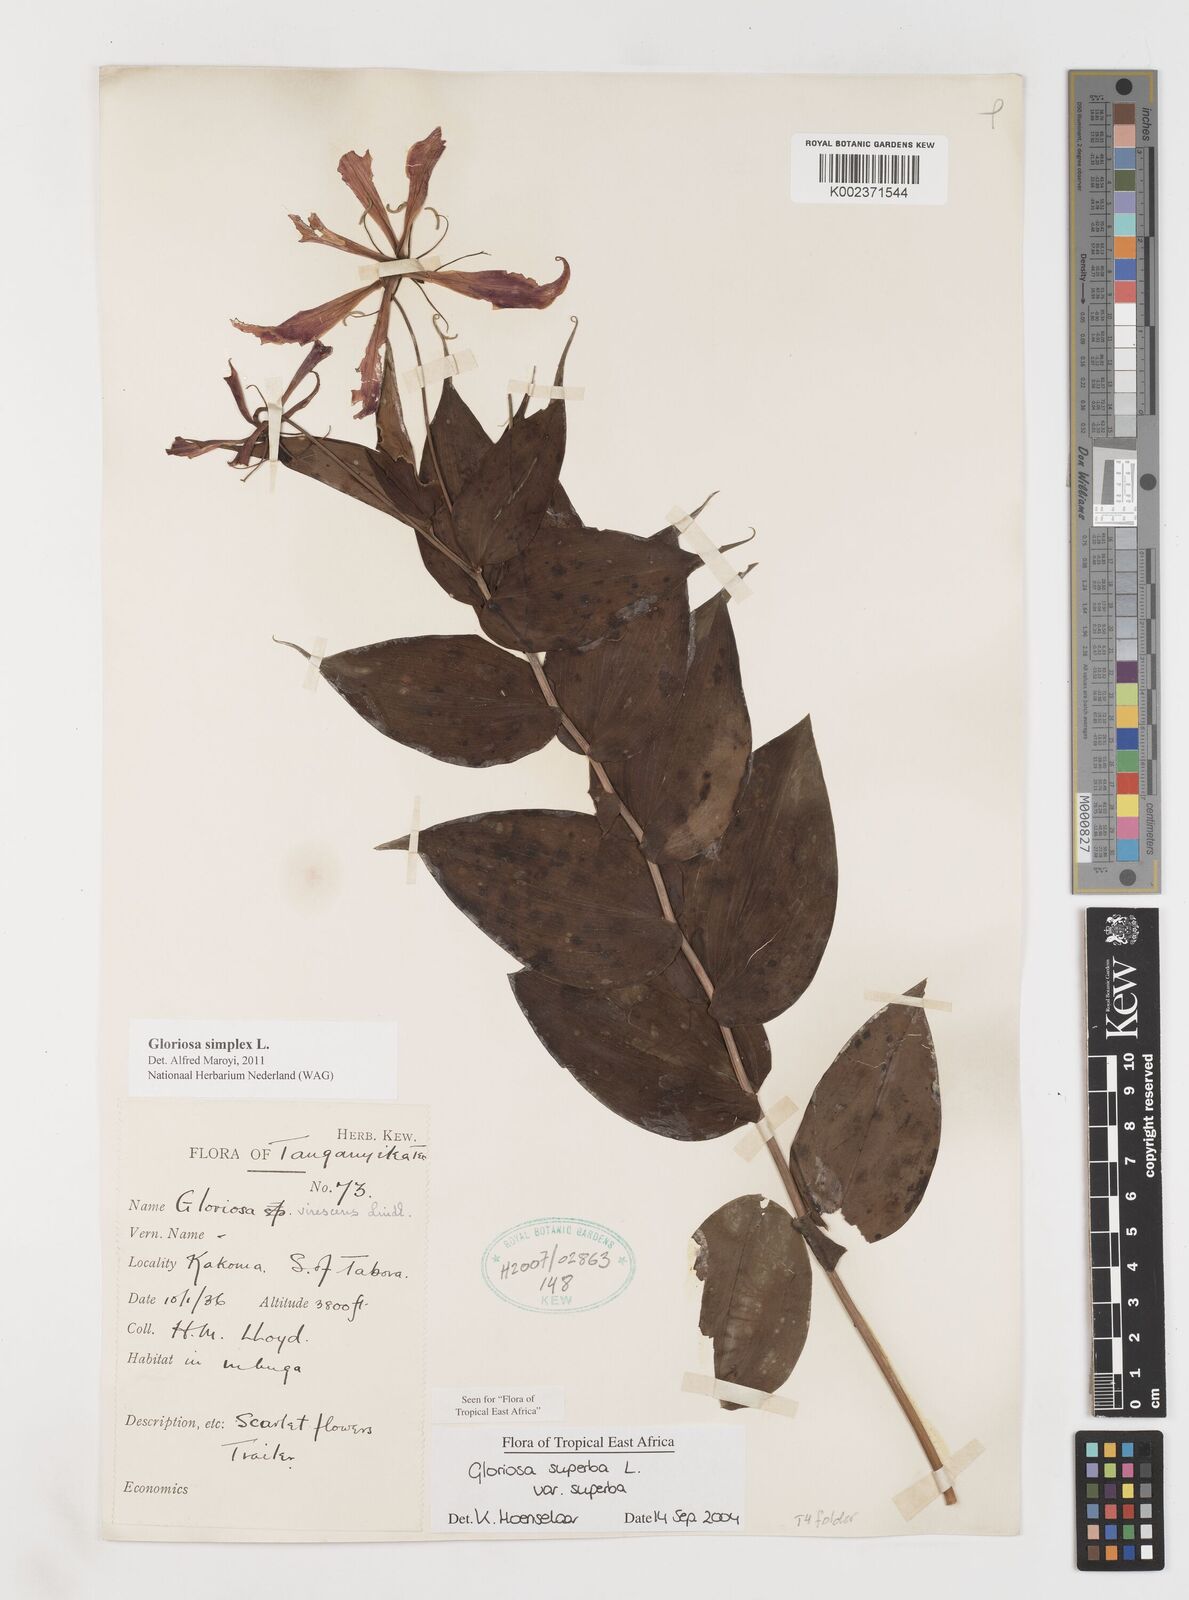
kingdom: Plantae
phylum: Tracheophyta
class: Liliopsida
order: Liliales
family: Colchicaceae
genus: Gloriosa
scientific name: Gloriosa simplex
